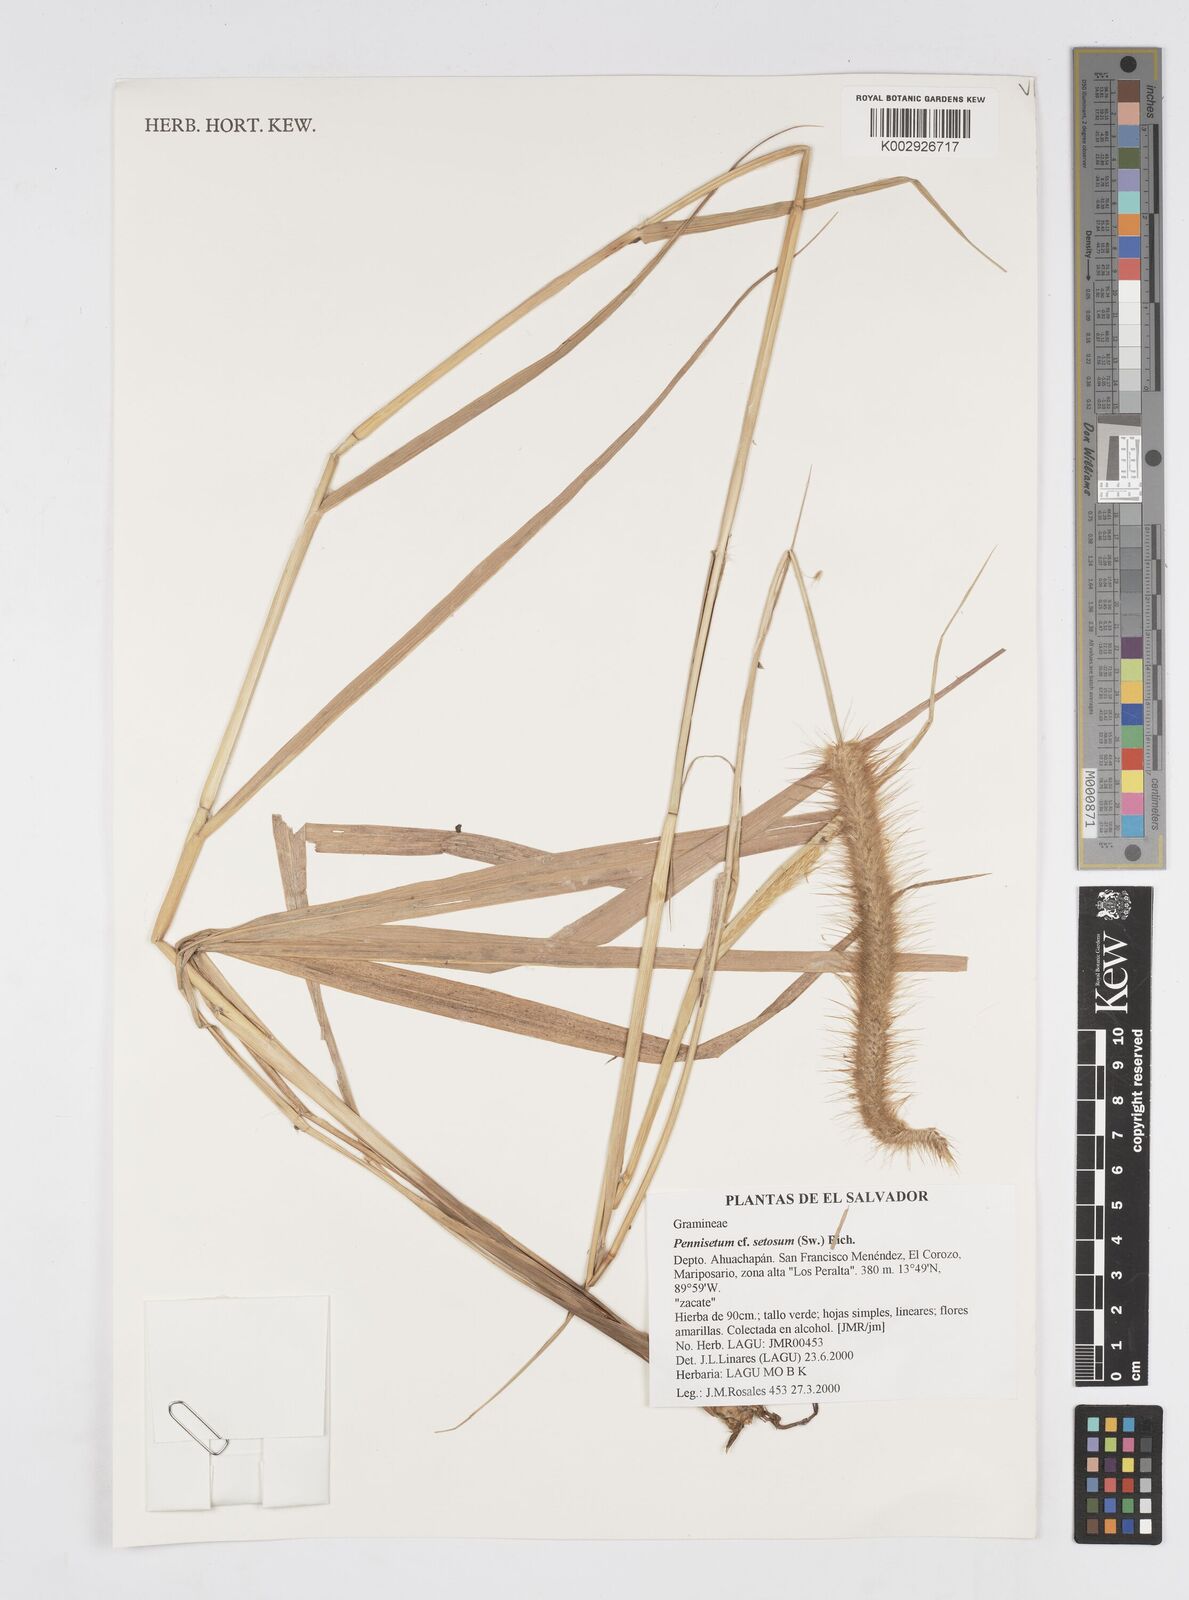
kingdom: Plantae
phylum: Tracheophyta
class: Liliopsida
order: Poales
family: Poaceae
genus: Setaria
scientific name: Setaria parviflora
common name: Knotroot bristle-grass
